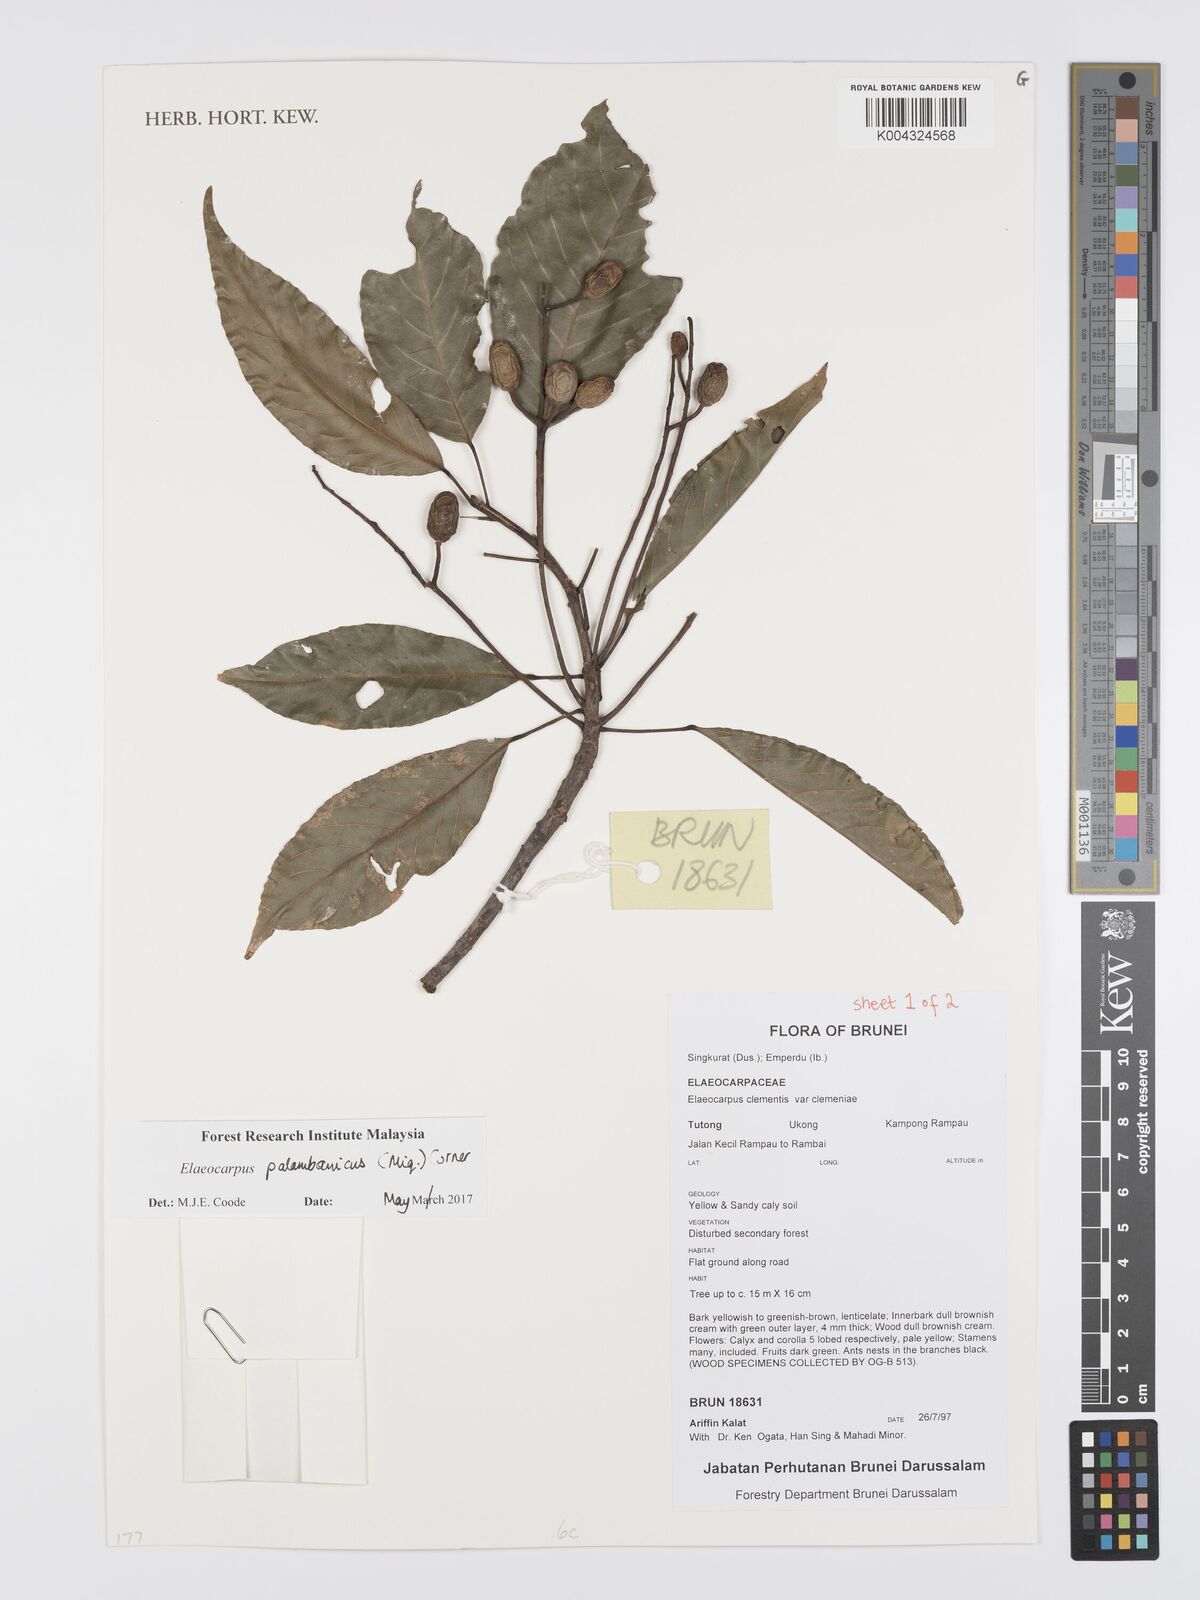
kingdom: Plantae
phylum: Tracheophyta
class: Magnoliopsida
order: Oxalidales
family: Elaeocarpaceae
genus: Elaeocarpus
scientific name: Elaeocarpus palembanicus
